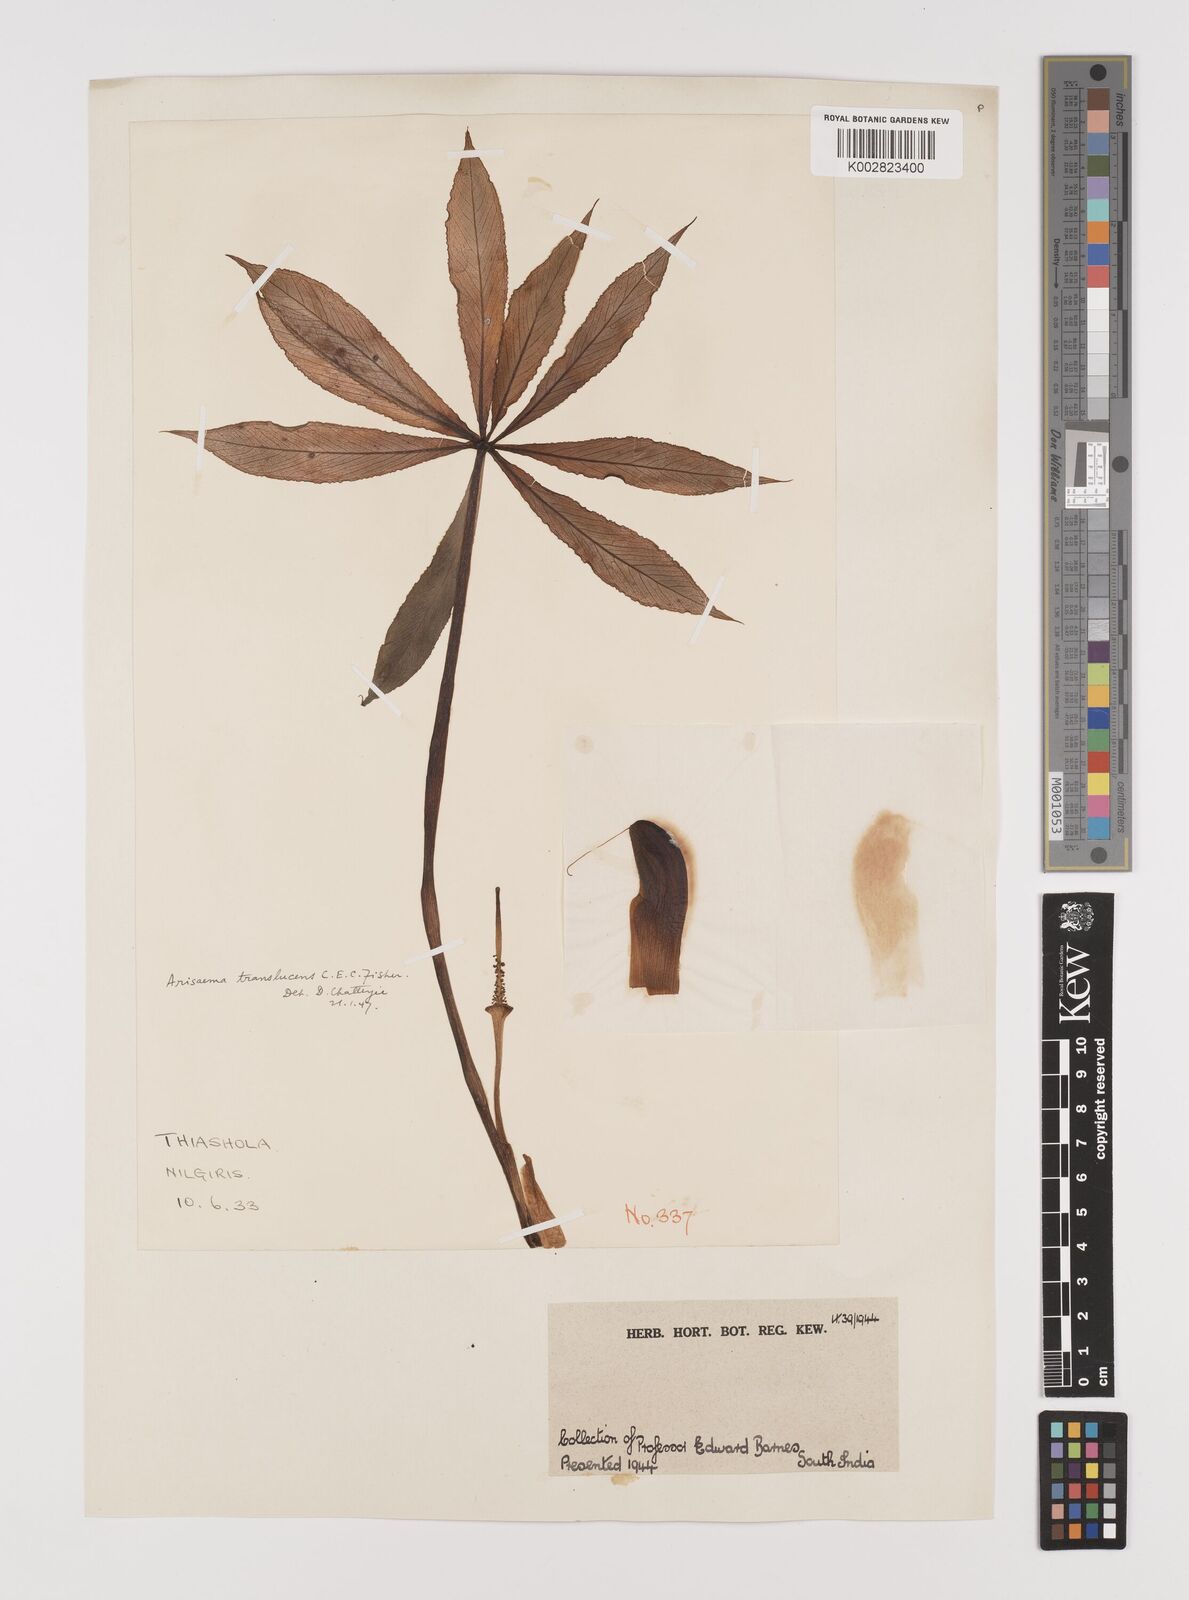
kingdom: Plantae
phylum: Tracheophyta
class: Liliopsida
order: Alismatales
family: Araceae
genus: Arisaema
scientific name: Arisaema translucens
